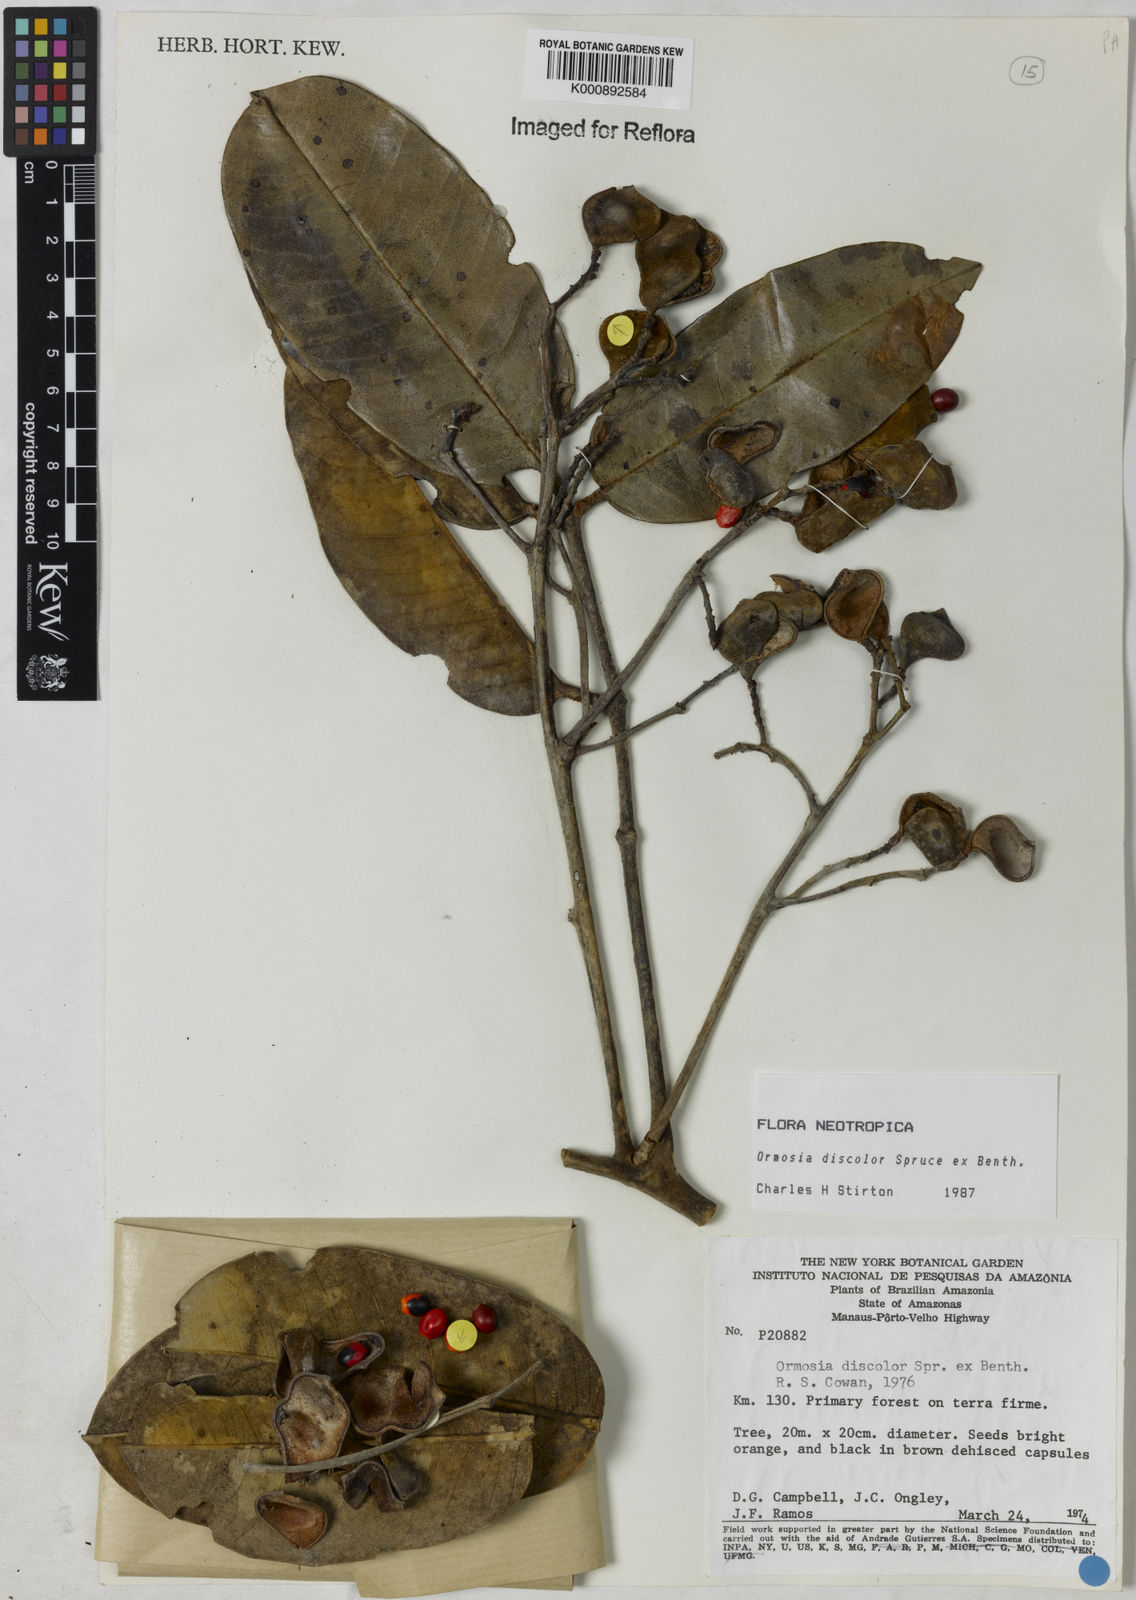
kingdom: Plantae
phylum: Tracheophyta
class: Magnoliopsida
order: Fabales
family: Fabaceae
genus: Ormosia
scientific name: Ormosia discolor
